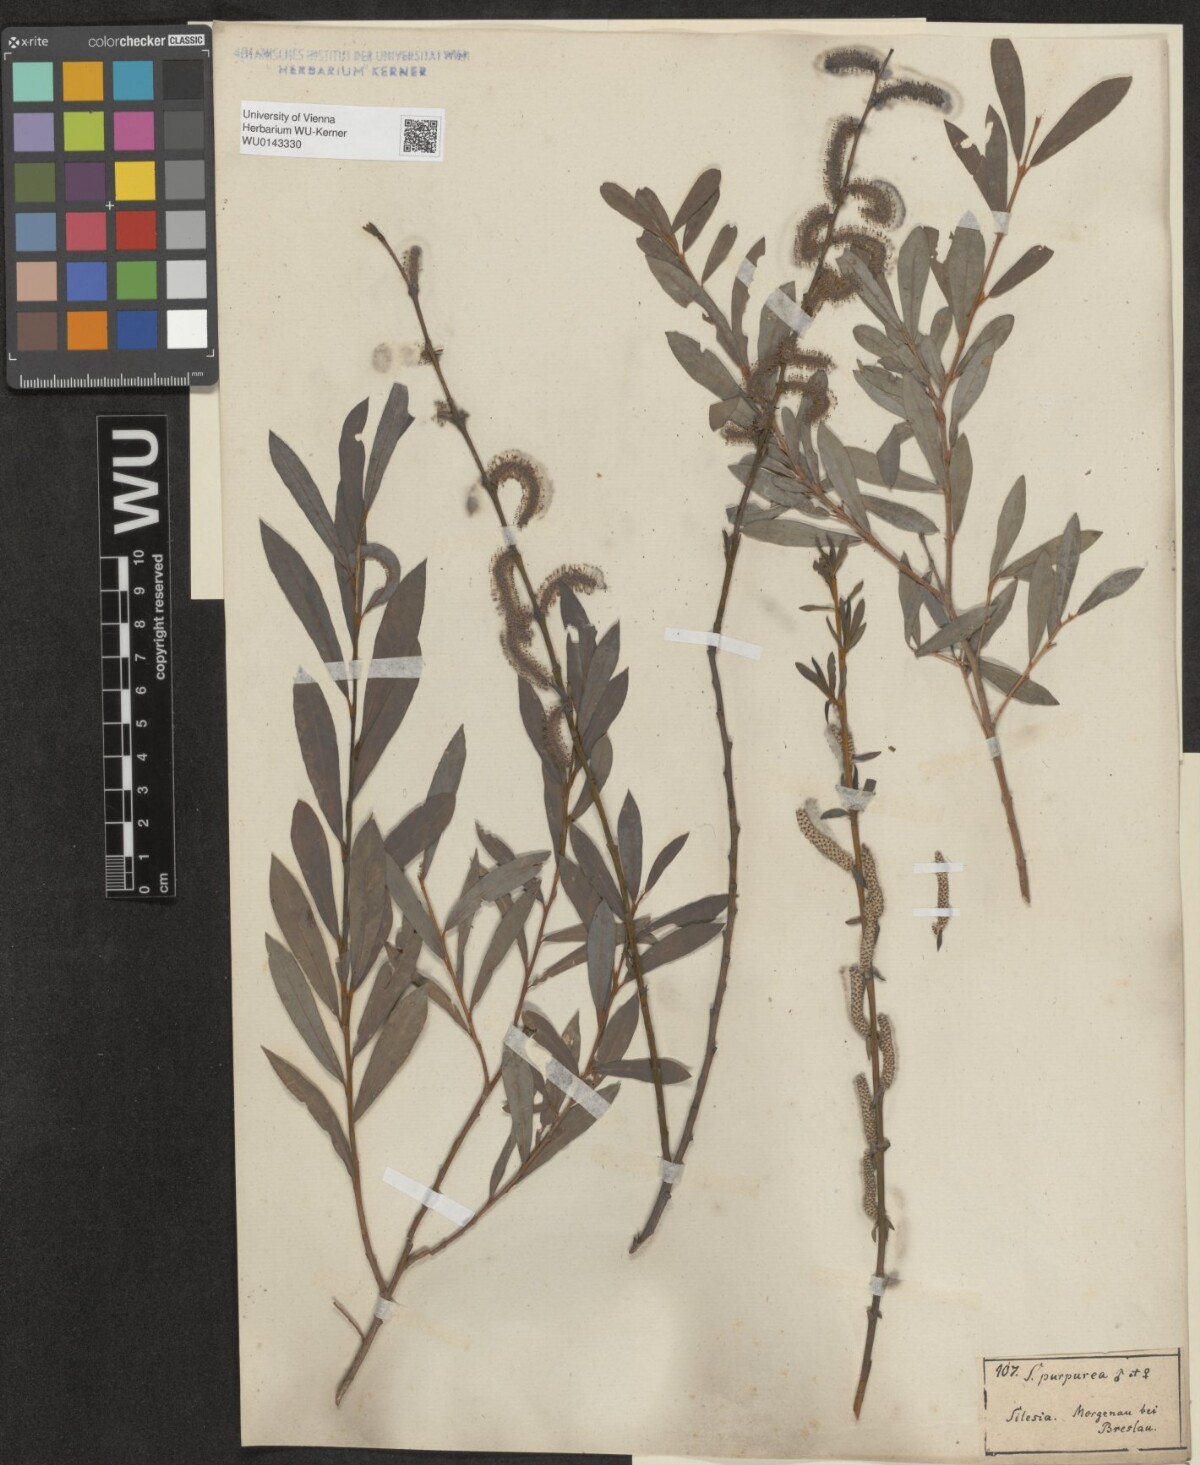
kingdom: Plantae
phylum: Tracheophyta
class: Magnoliopsida
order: Malpighiales
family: Salicaceae
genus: Salix
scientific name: Salix purpurea
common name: Purple willow
